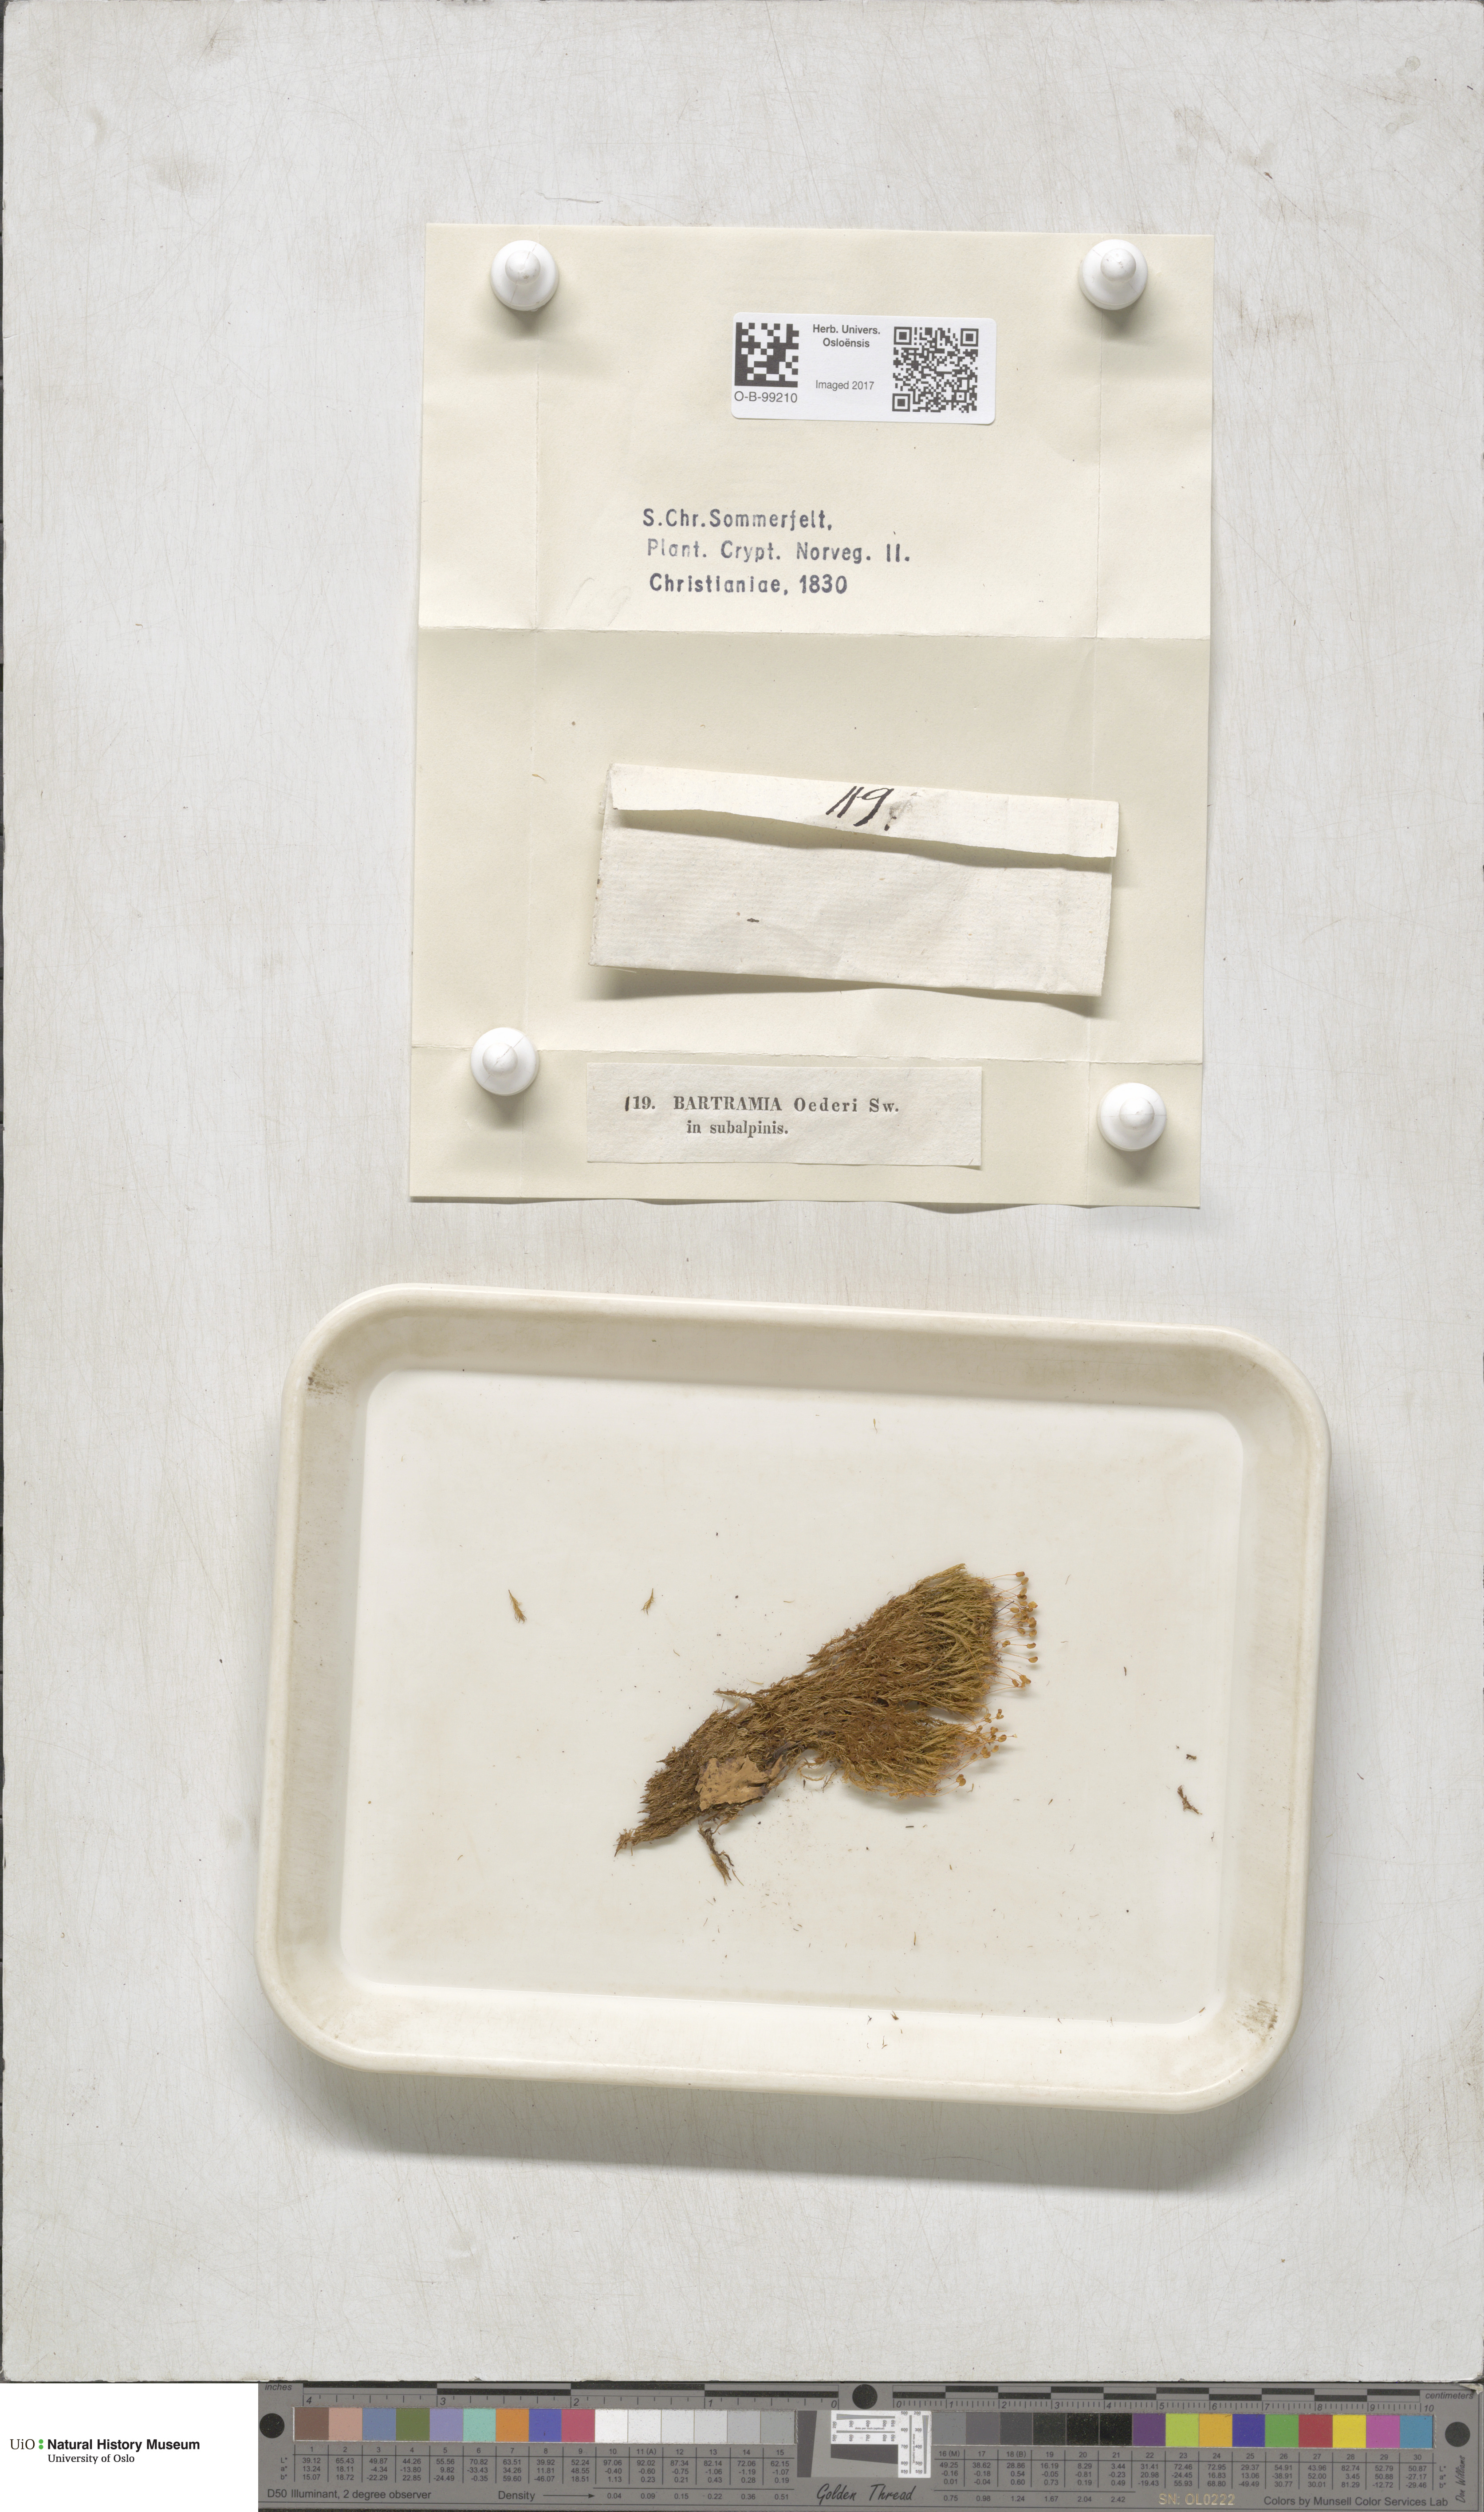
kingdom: Plantae
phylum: Bryophyta
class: Bryopsida
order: Bartramiales
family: Bartramiaceae
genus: Plagiopus
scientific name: Plagiopus oederianus
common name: Oeder's apple moss
